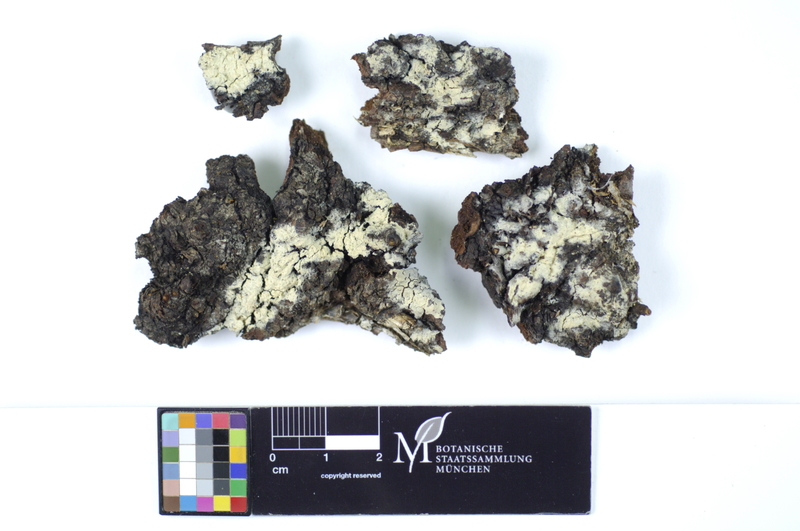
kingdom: Plantae
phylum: Tracheophyta
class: Magnoliopsida
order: Fagales
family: Betulaceae
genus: Betula
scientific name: Betula
